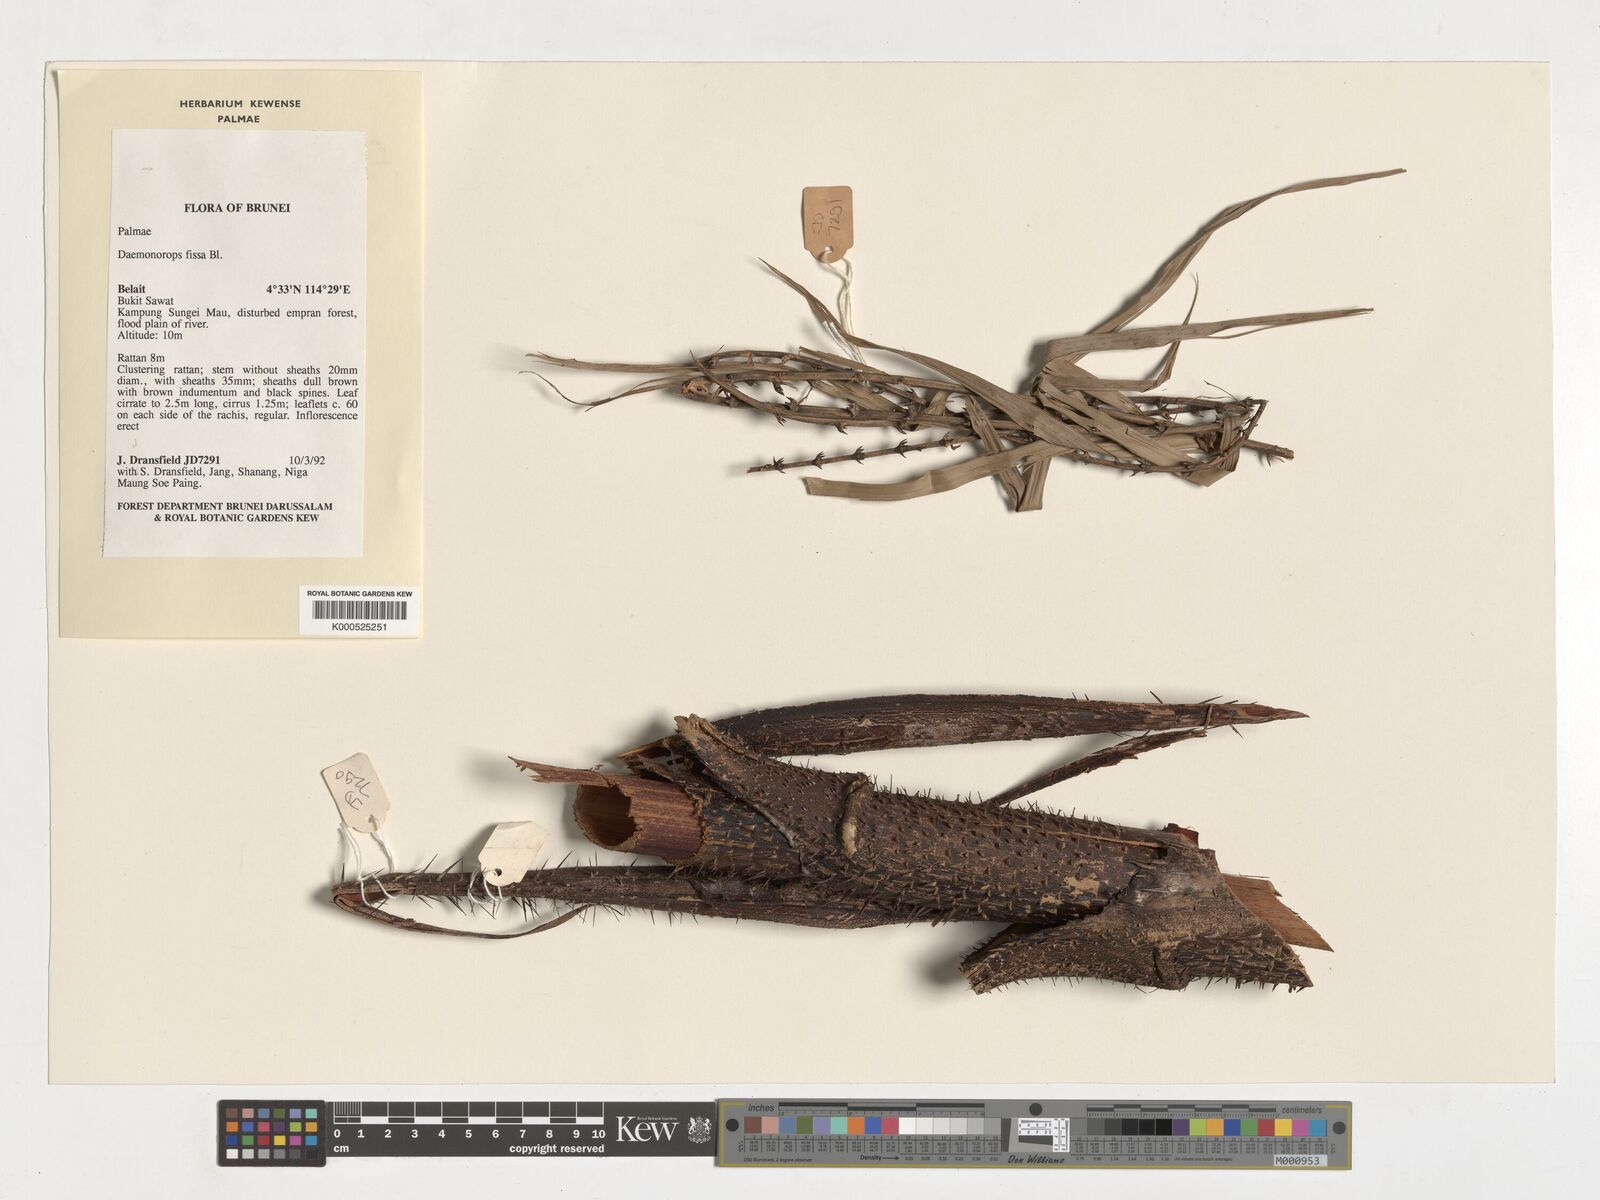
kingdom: Plantae
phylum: Tracheophyta
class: Liliopsida
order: Arecales
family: Arecaceae
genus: Calamus
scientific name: Calamus melanochaetes
